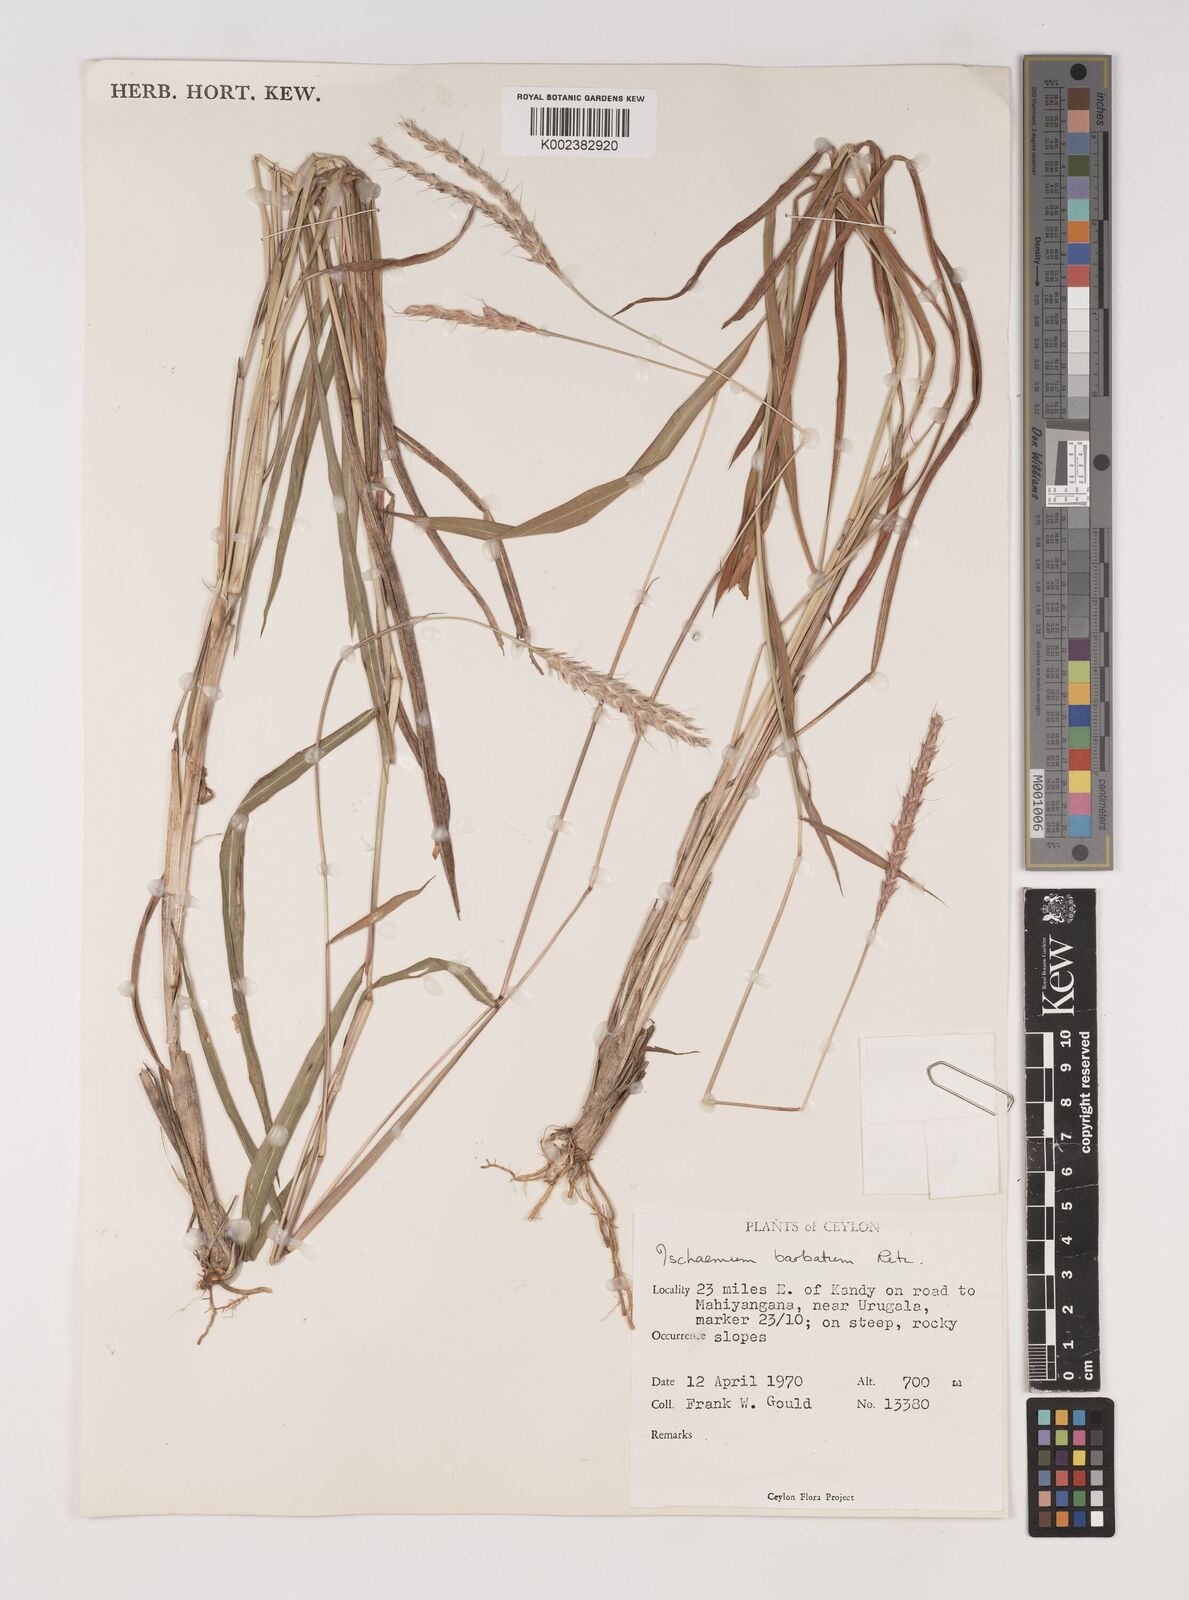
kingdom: Plantae
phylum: Tracheophyta
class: Liliopsida
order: Poales
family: Poaceae
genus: Ischaemum
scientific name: Ischaemum
